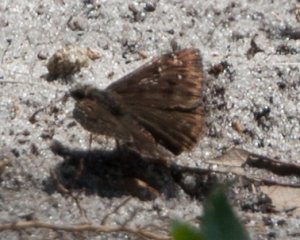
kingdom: Animalia
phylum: Arthropoda
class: Insecta
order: Lepidoptera
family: Hesperiidae
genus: Erynnis
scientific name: Erynnis
